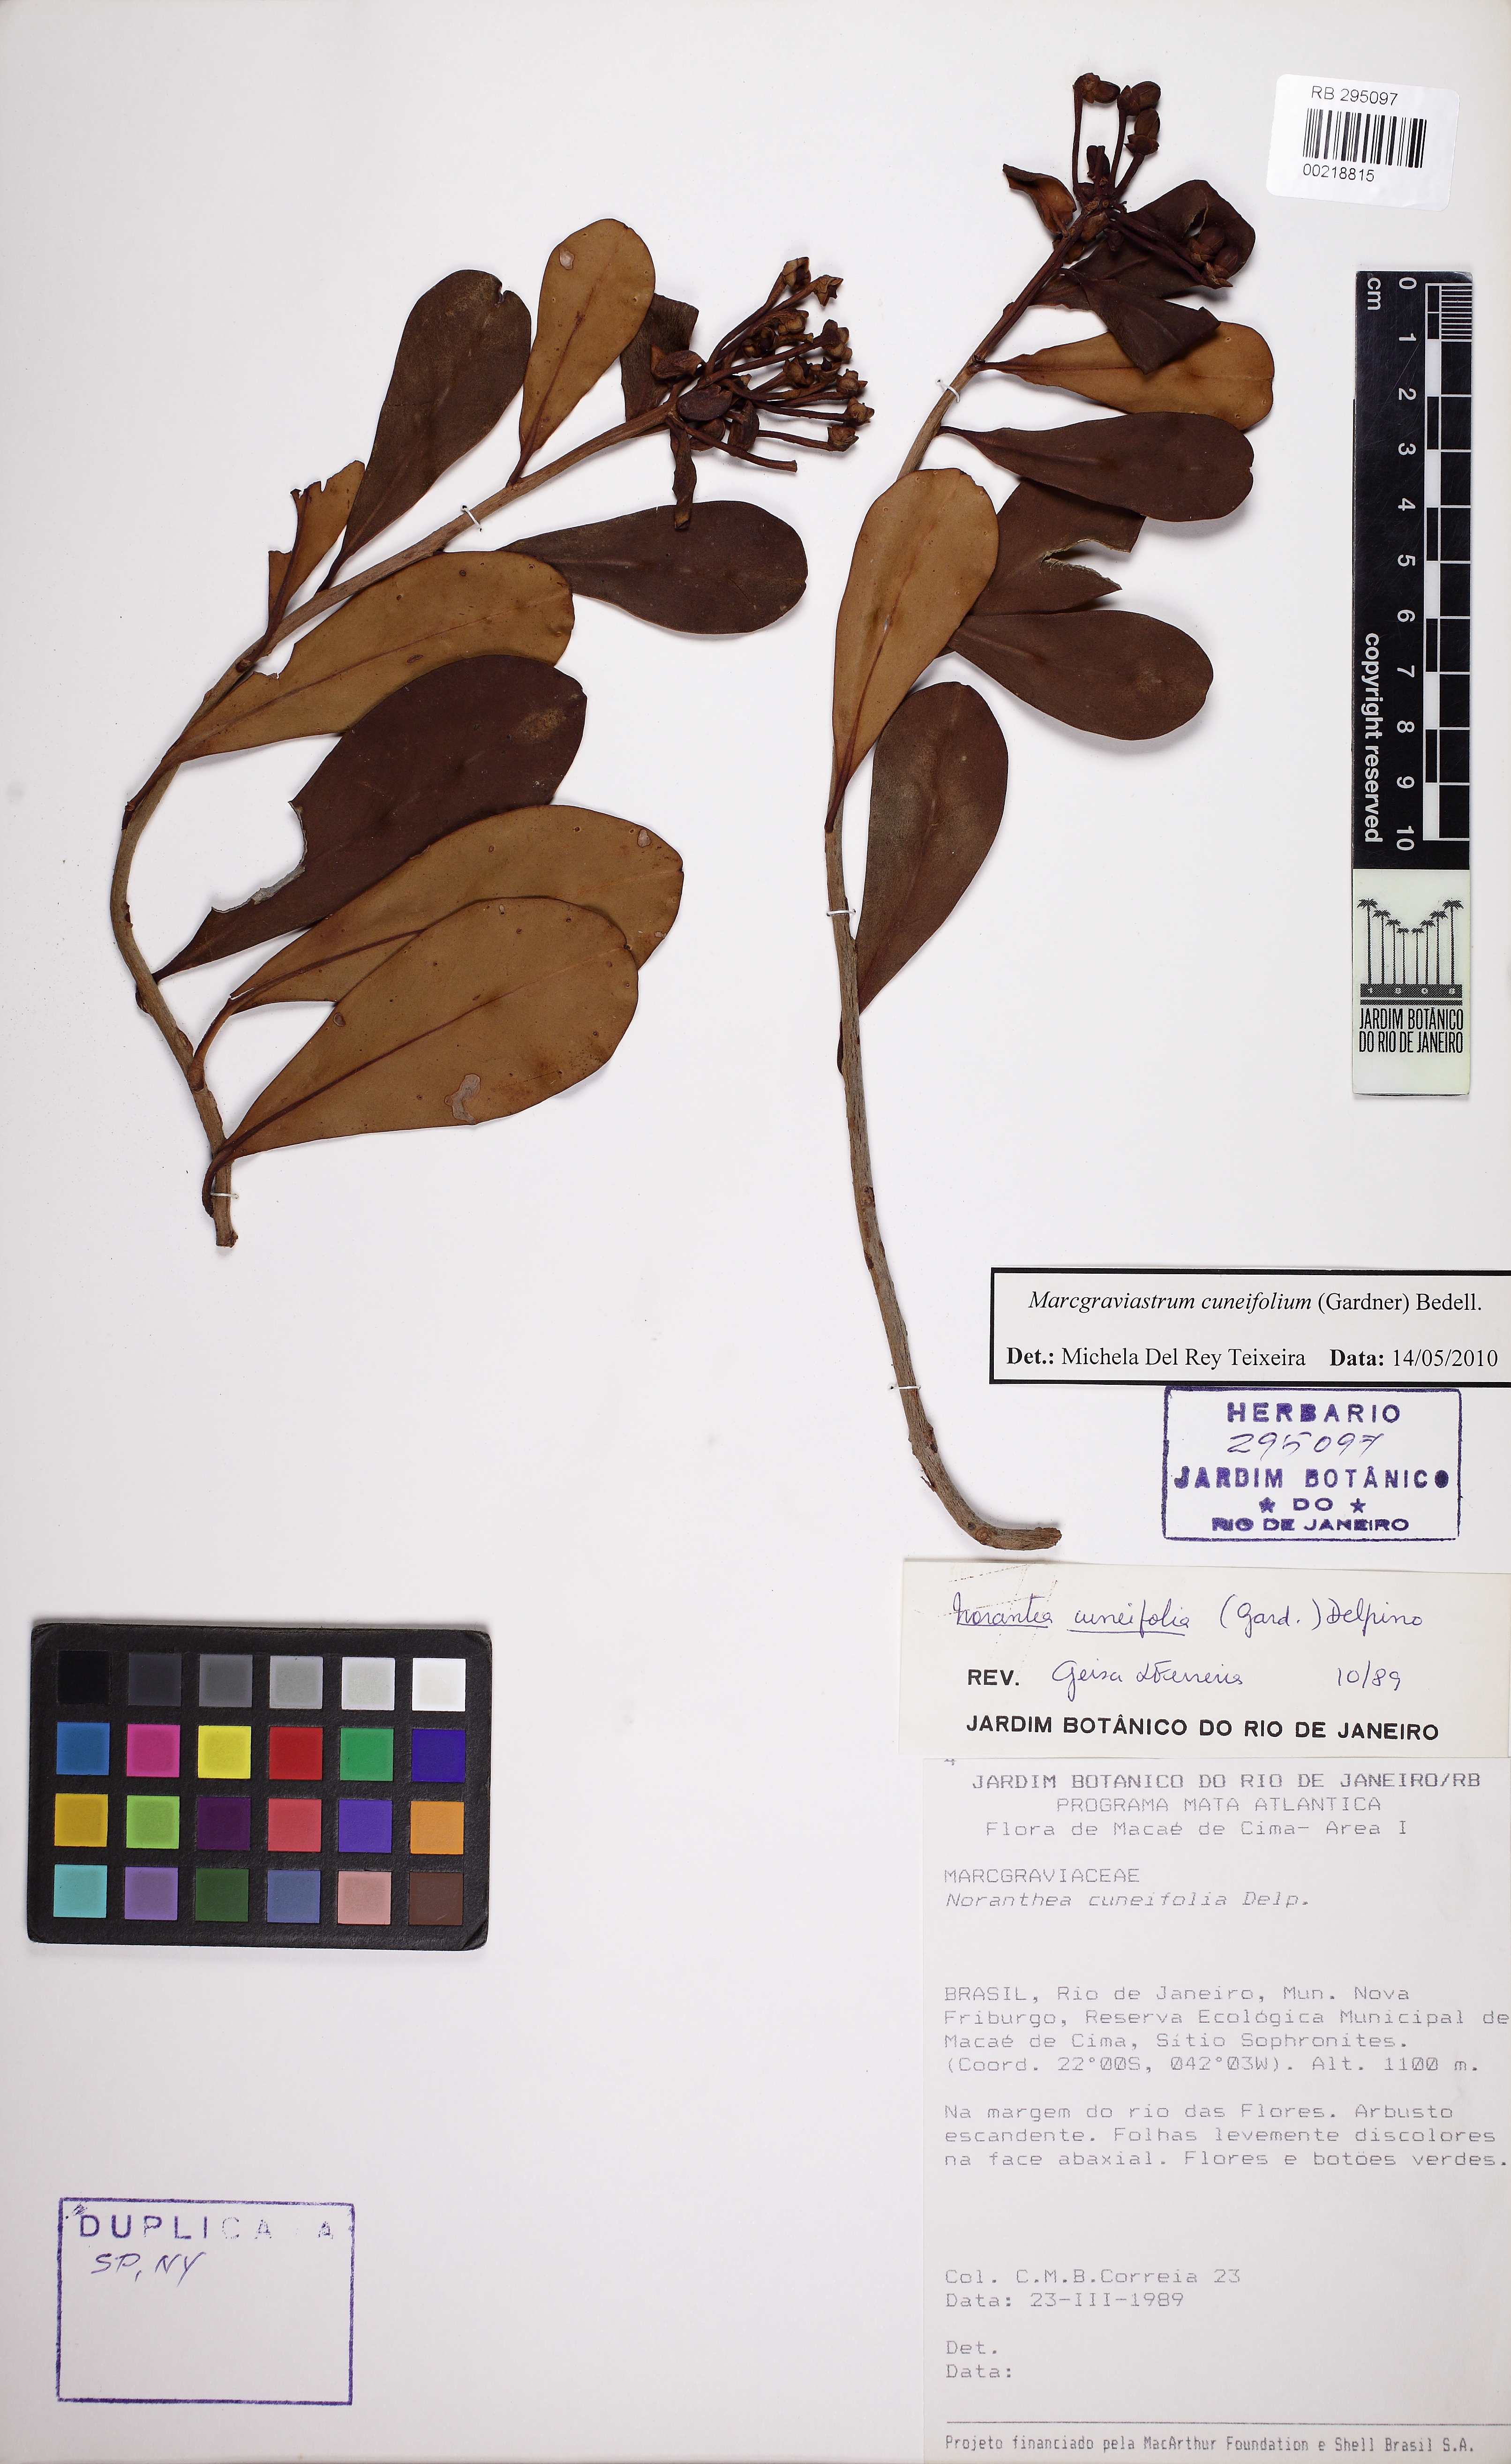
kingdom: Plantae
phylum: Tracheophyta
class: Magnoliopsida
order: Ericales
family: Marcgraviaceae
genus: Marcgraviastrum
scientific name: Marcgraviastrum cuneifolium
